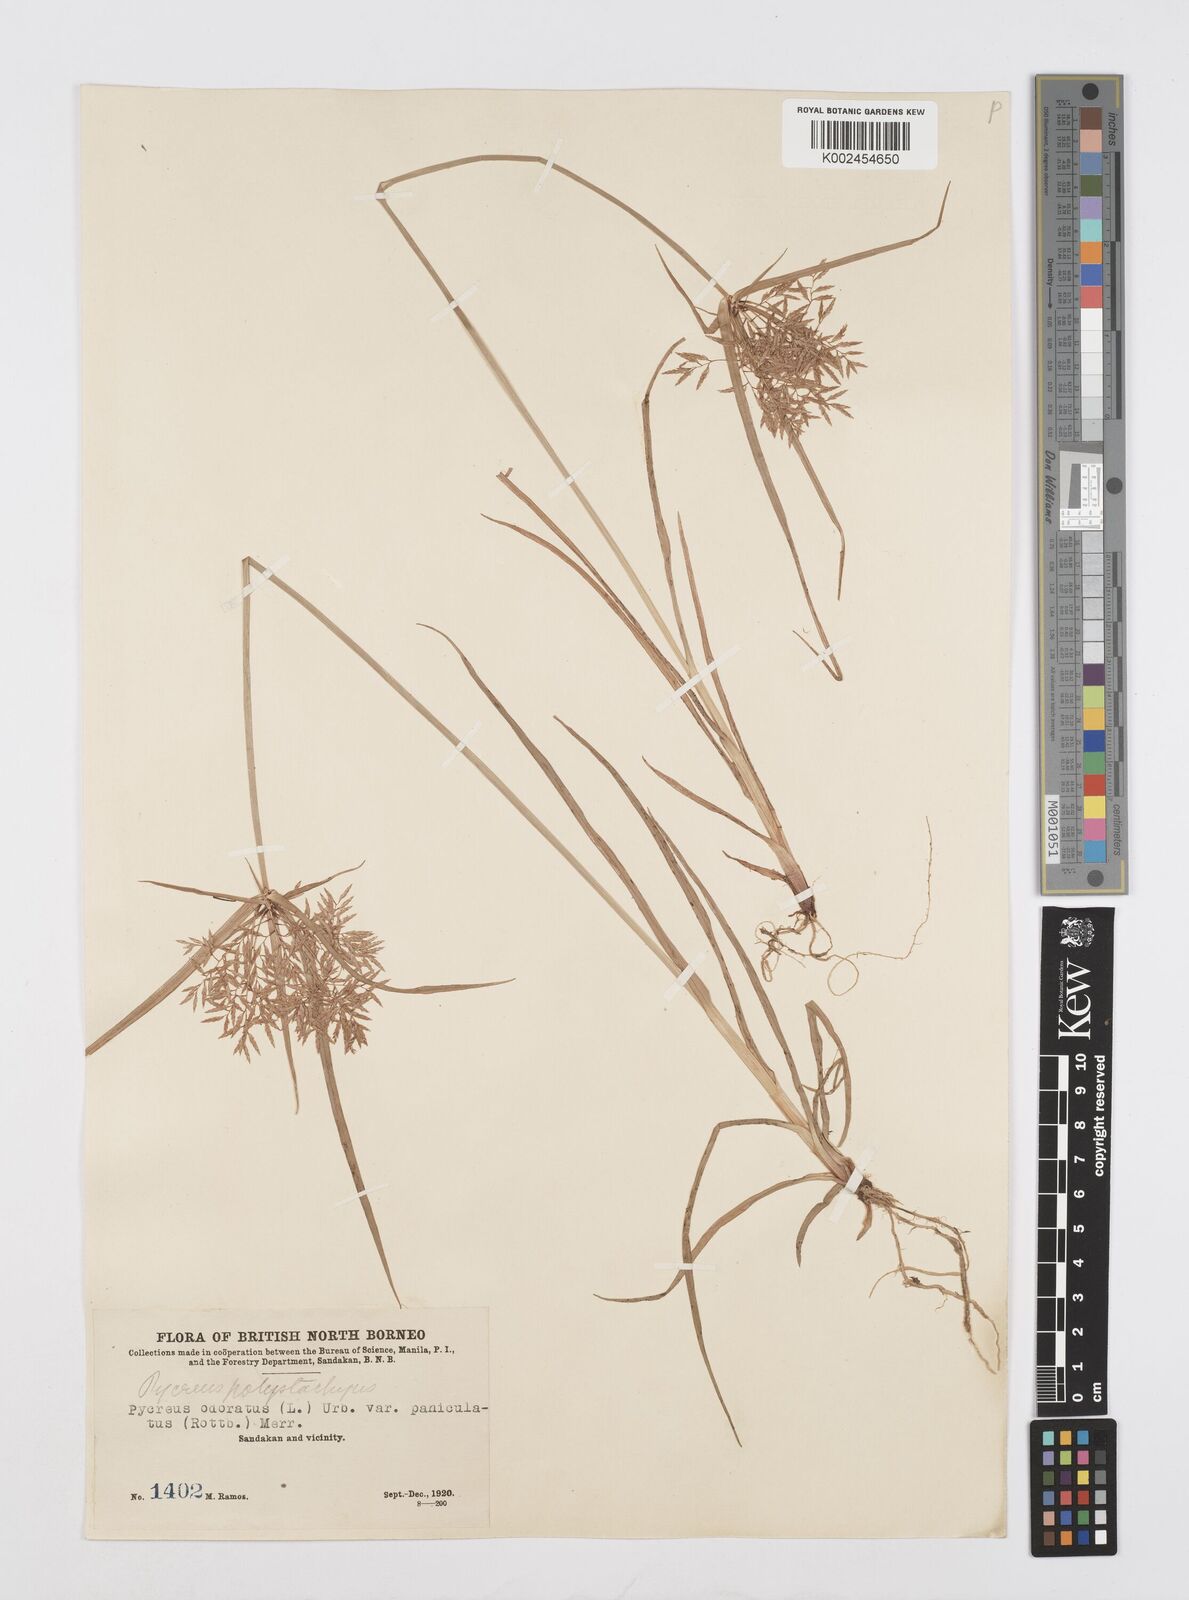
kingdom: Plantae
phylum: Tracheophyta
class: Liliopsida
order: Poales
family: Cyperaceae
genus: Cyperus
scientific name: Cyperus polystachyos
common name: Bunchy flat sedge
